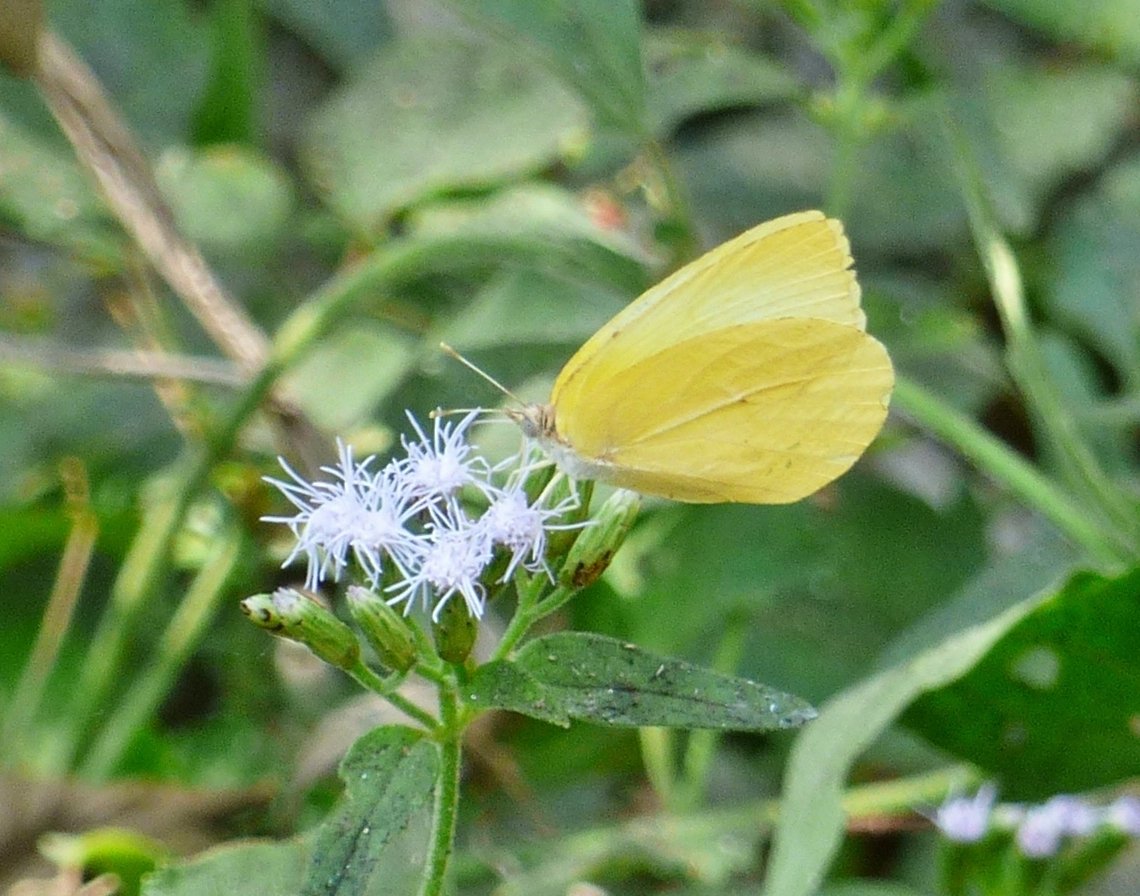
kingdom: Animalia
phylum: Arthropoda
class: Insecta
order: Lepidoptera
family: Pieridae
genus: Kricogonia
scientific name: Kricogonia lyside
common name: Lyside Sulphur
